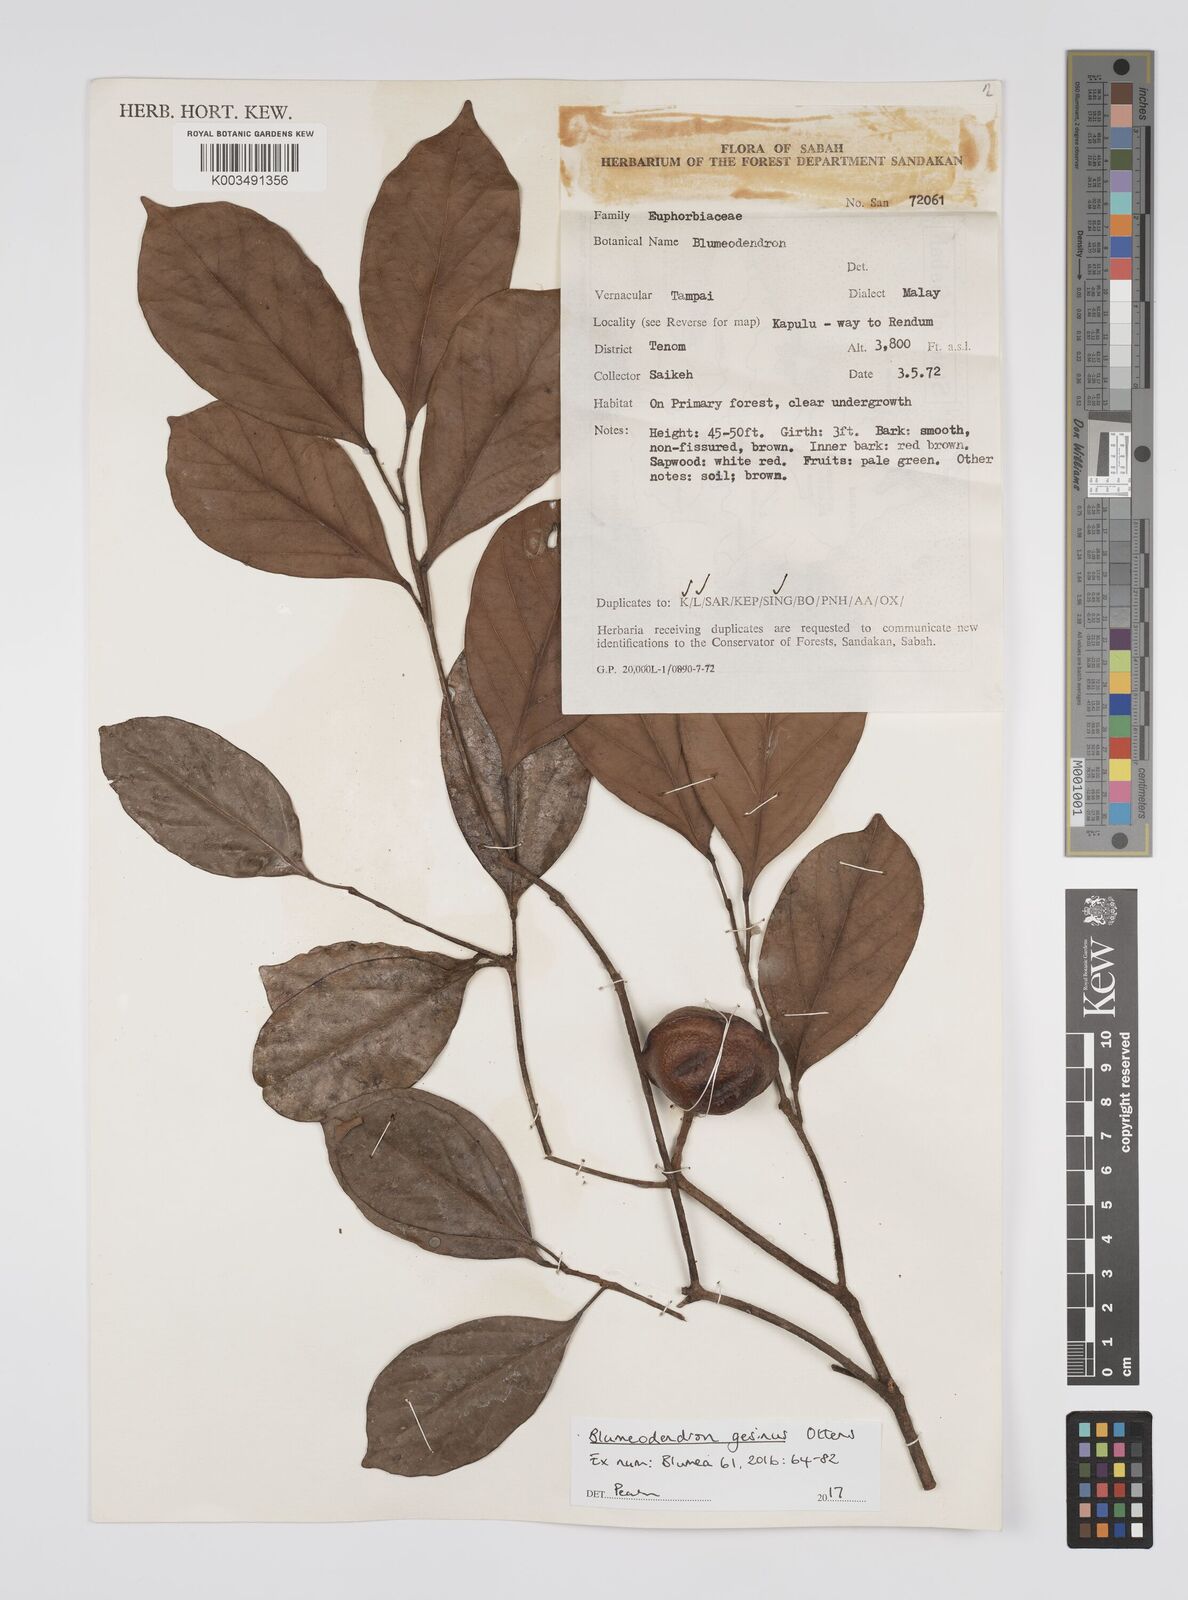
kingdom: Plantae
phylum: Tracheophyta
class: Magnoliopsida
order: Malpighiales
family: Euphorbiaceae
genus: Blumeodendron
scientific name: Blumeodendron gesinus
